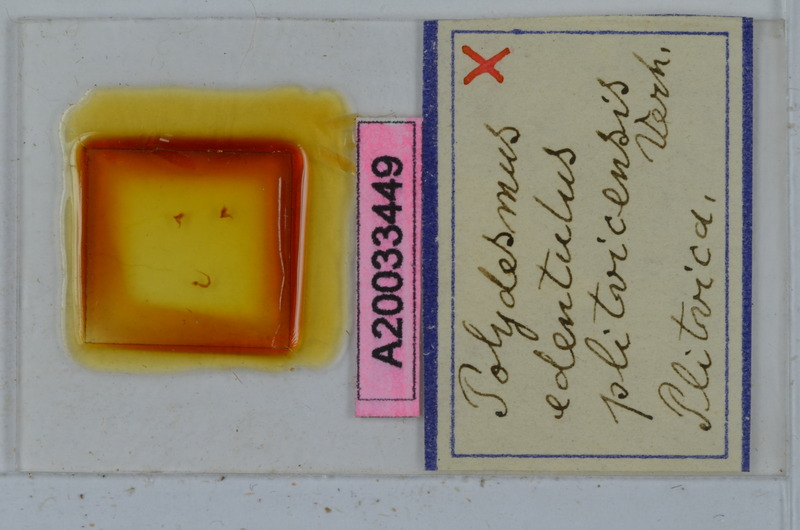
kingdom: Animalia
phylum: Arthropoda
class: Diplopoda
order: Polydesmida
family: Polydesmidae
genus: Polydesmus
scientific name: Polydesmus edentulus
